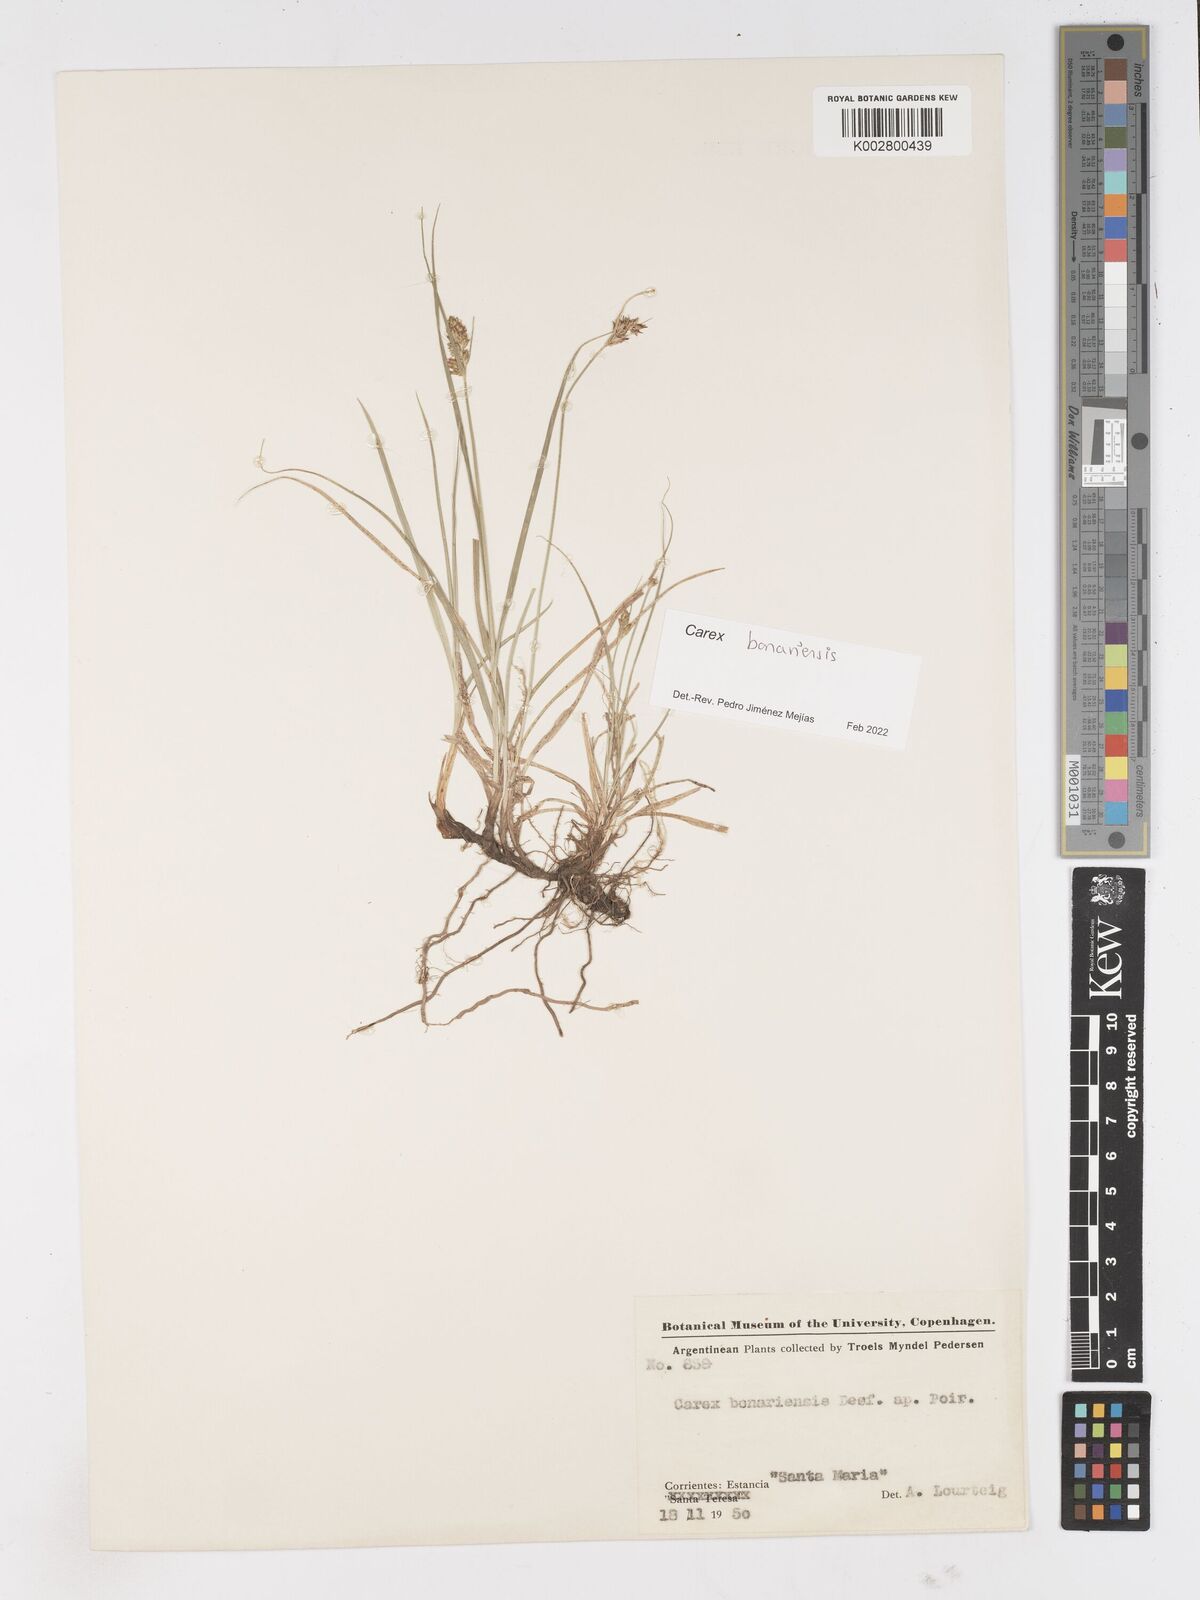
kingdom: Plantae
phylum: Tracheophyta
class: Liliopsida
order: Poales
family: Cyperaceae
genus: Carex
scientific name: Carex bonariensis
